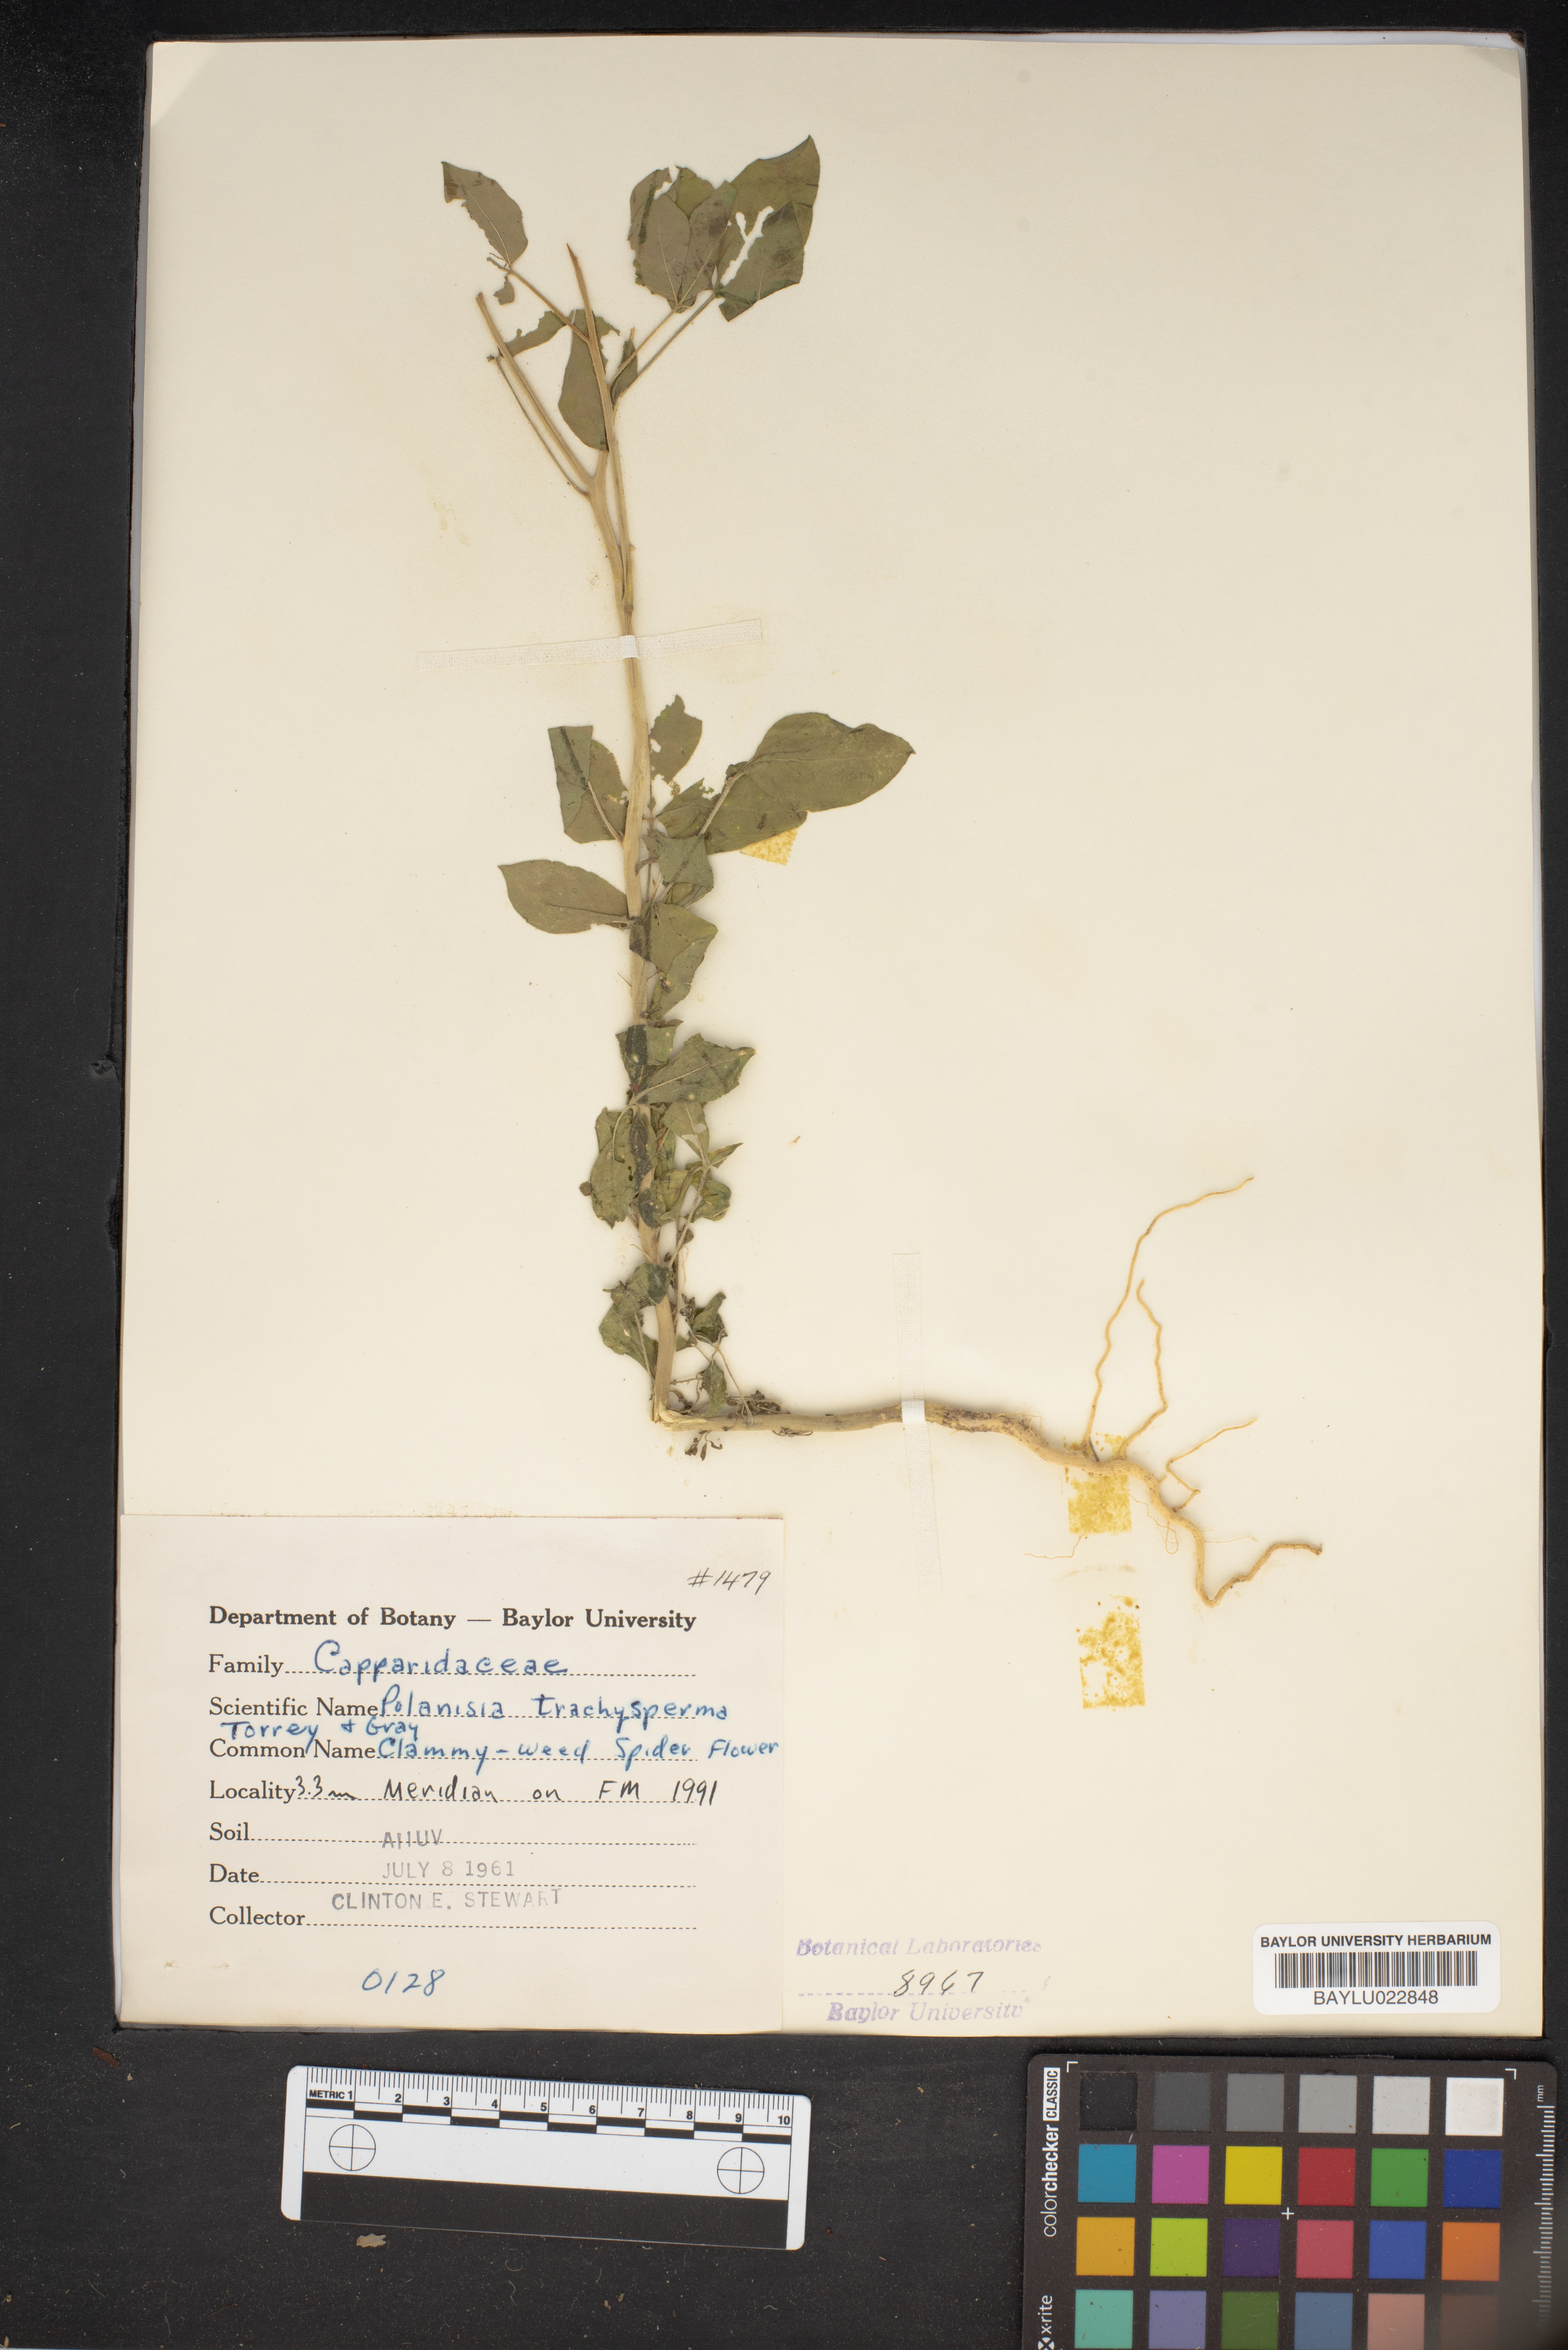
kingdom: Plantae
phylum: Tracheophyta
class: Magnoliopsida
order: Brassicales
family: Cleomaceae
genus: Polanisia
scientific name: Polanisia trachysperma
